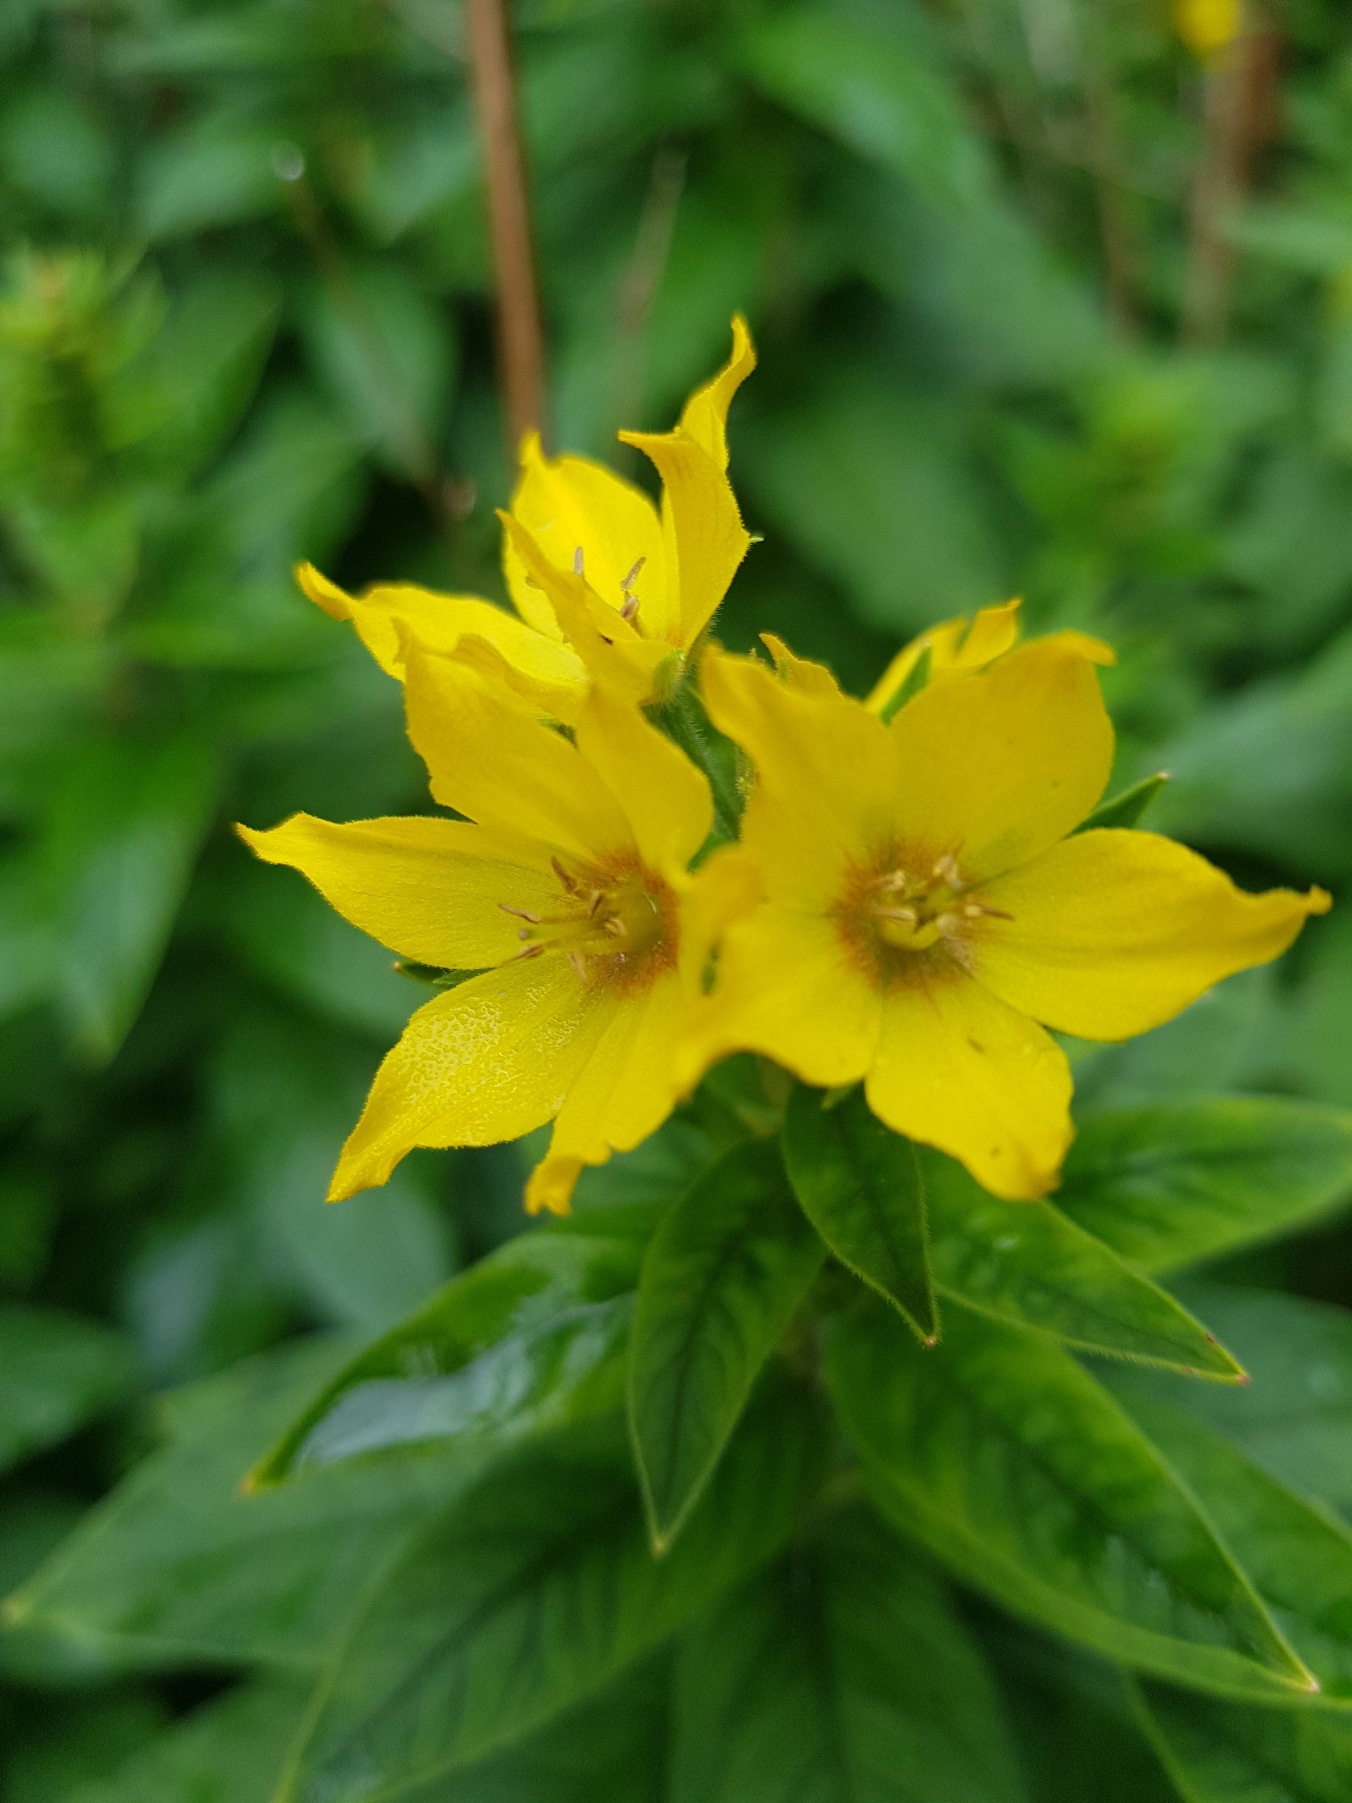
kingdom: Plantae
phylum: Tracheophyta
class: Magnoliopsida
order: Ericales
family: Primulaceae
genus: Lysimachia
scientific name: Lysimachia punctata
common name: Prikbladet fredløs
